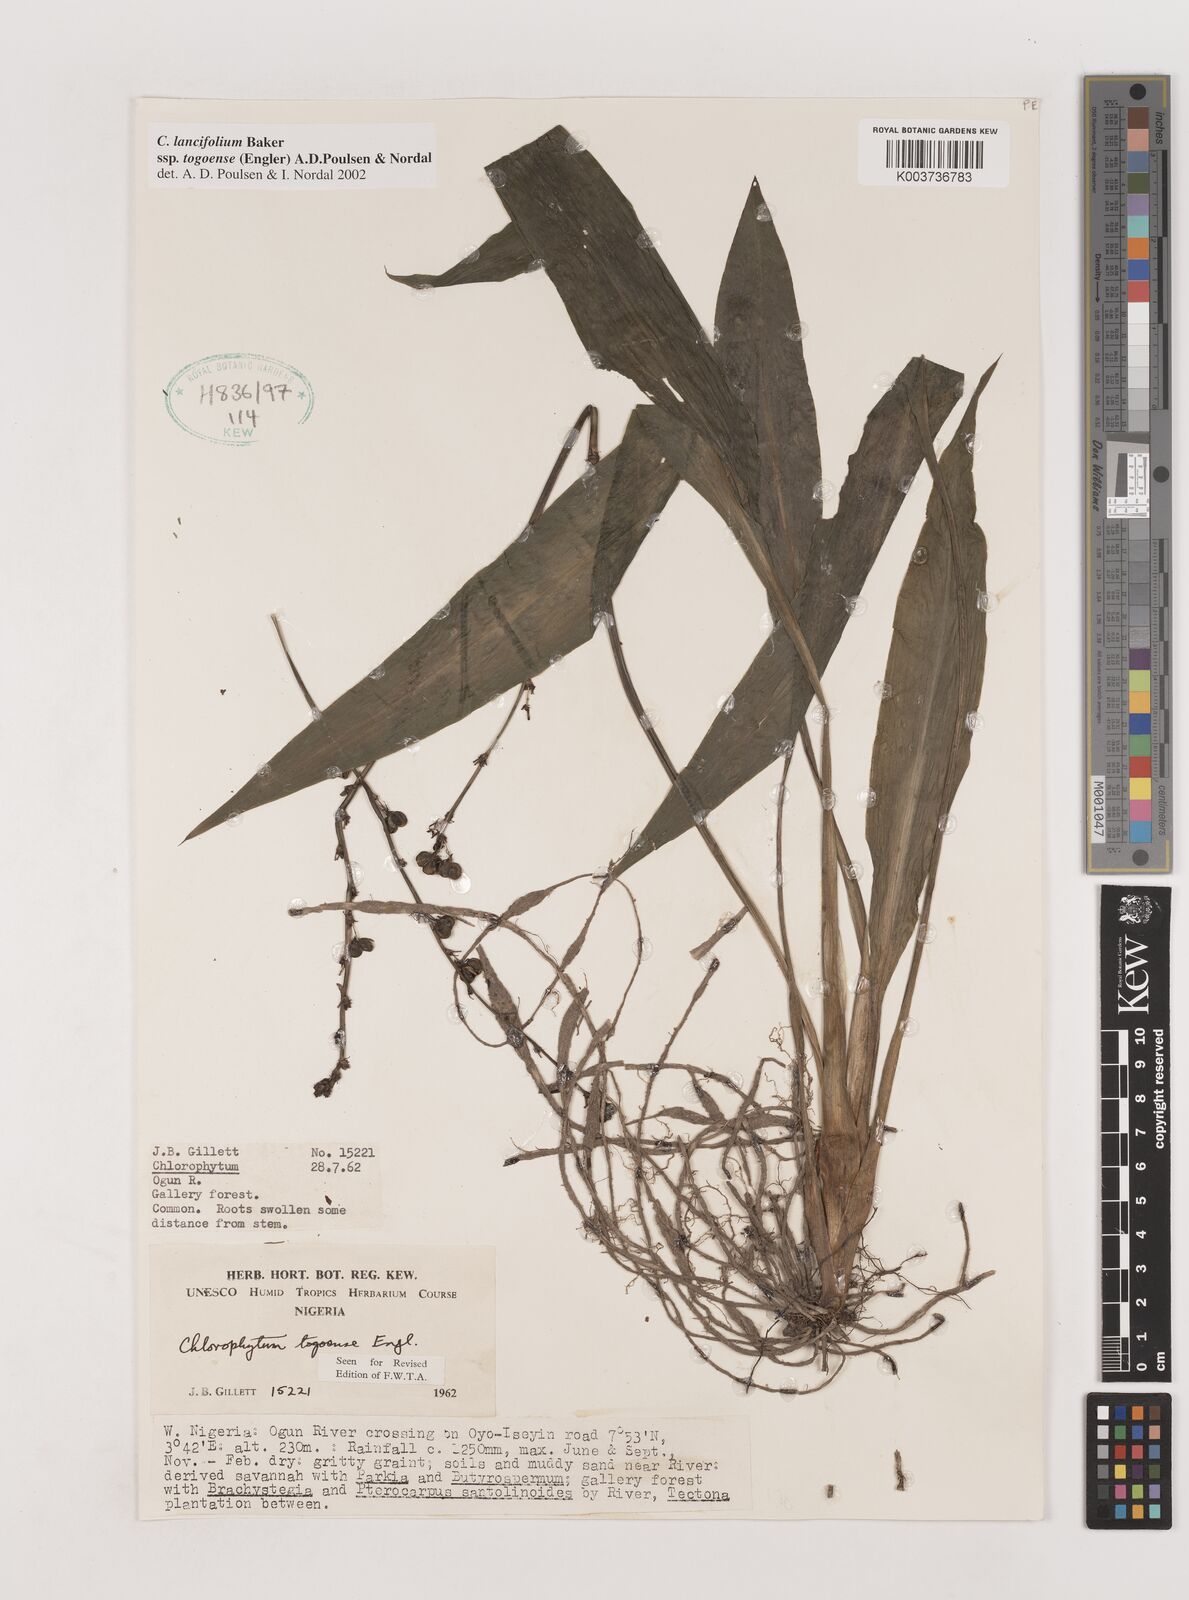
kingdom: Plantae
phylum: Tracheophyta
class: Liliopsida
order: Asparagales
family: Asparagaceae
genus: Chlorophytum
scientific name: Chlorophytum lancifolium
